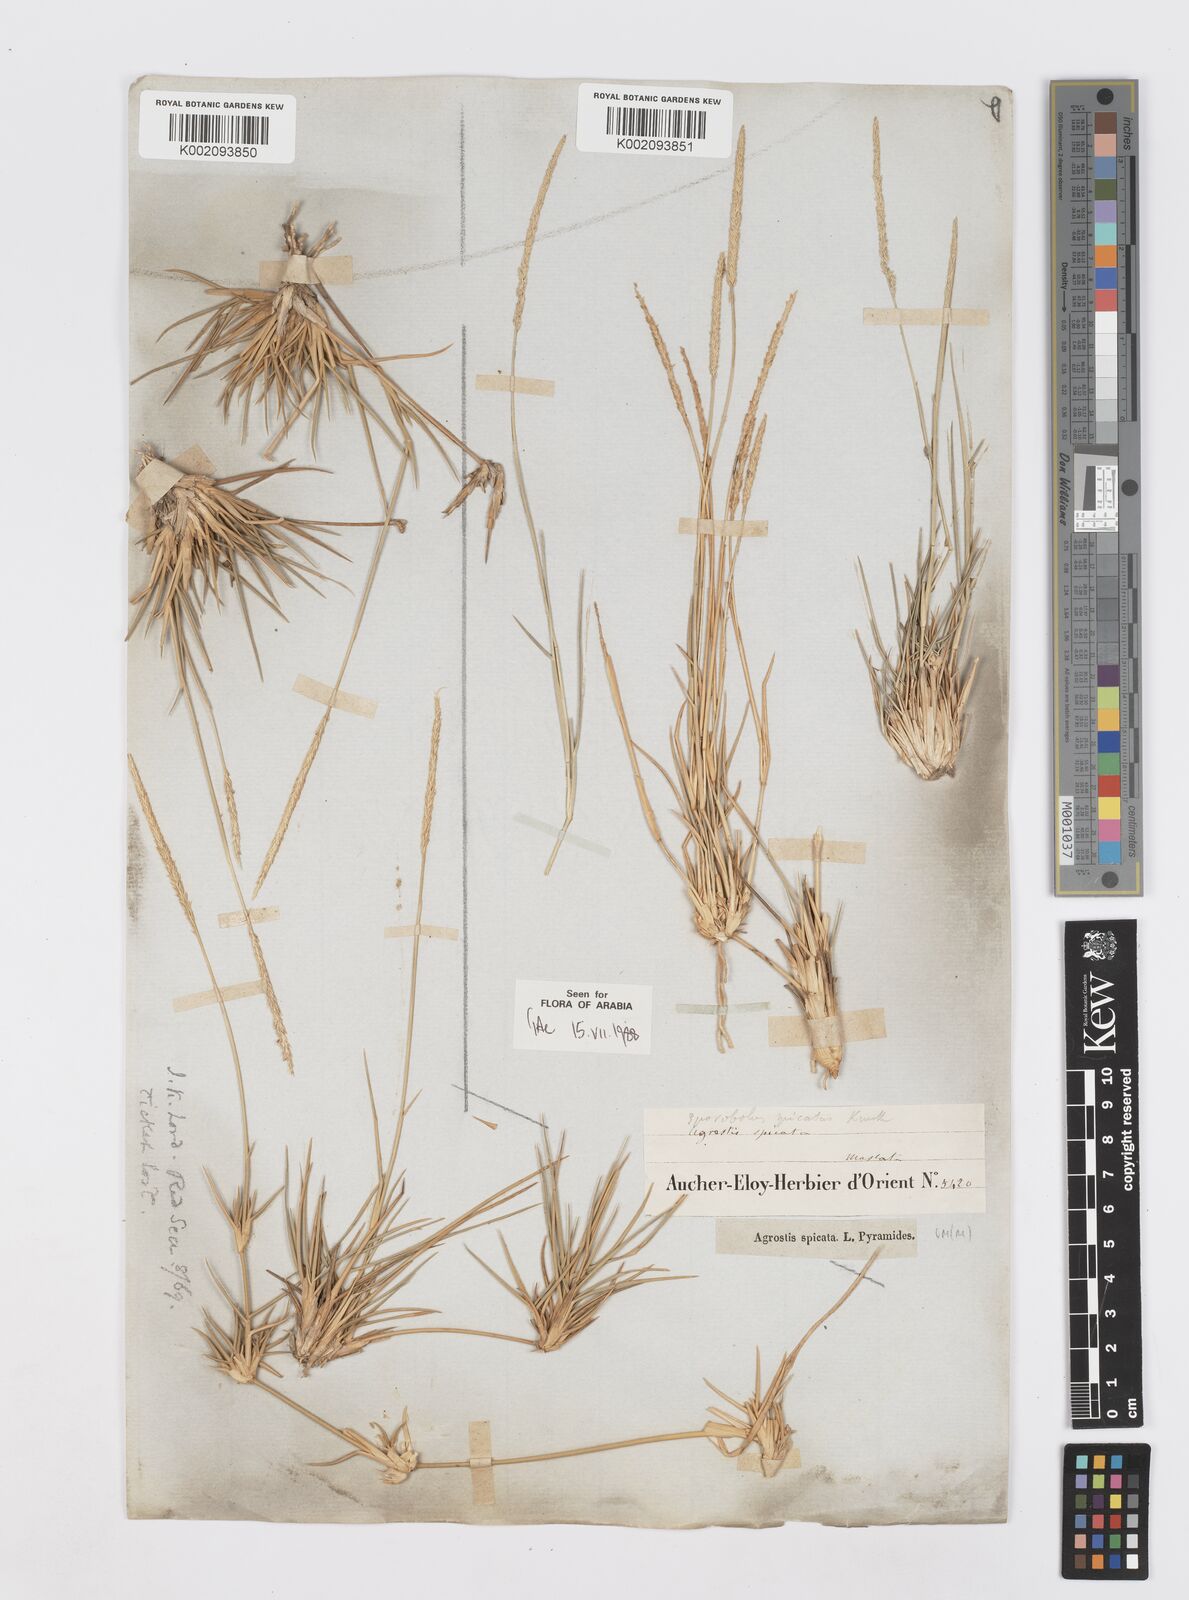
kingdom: Plantae
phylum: Tracheophyta
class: Liliopsida
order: Poales
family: Poaceae
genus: Sporobolus
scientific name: Sporobolus spicatus
